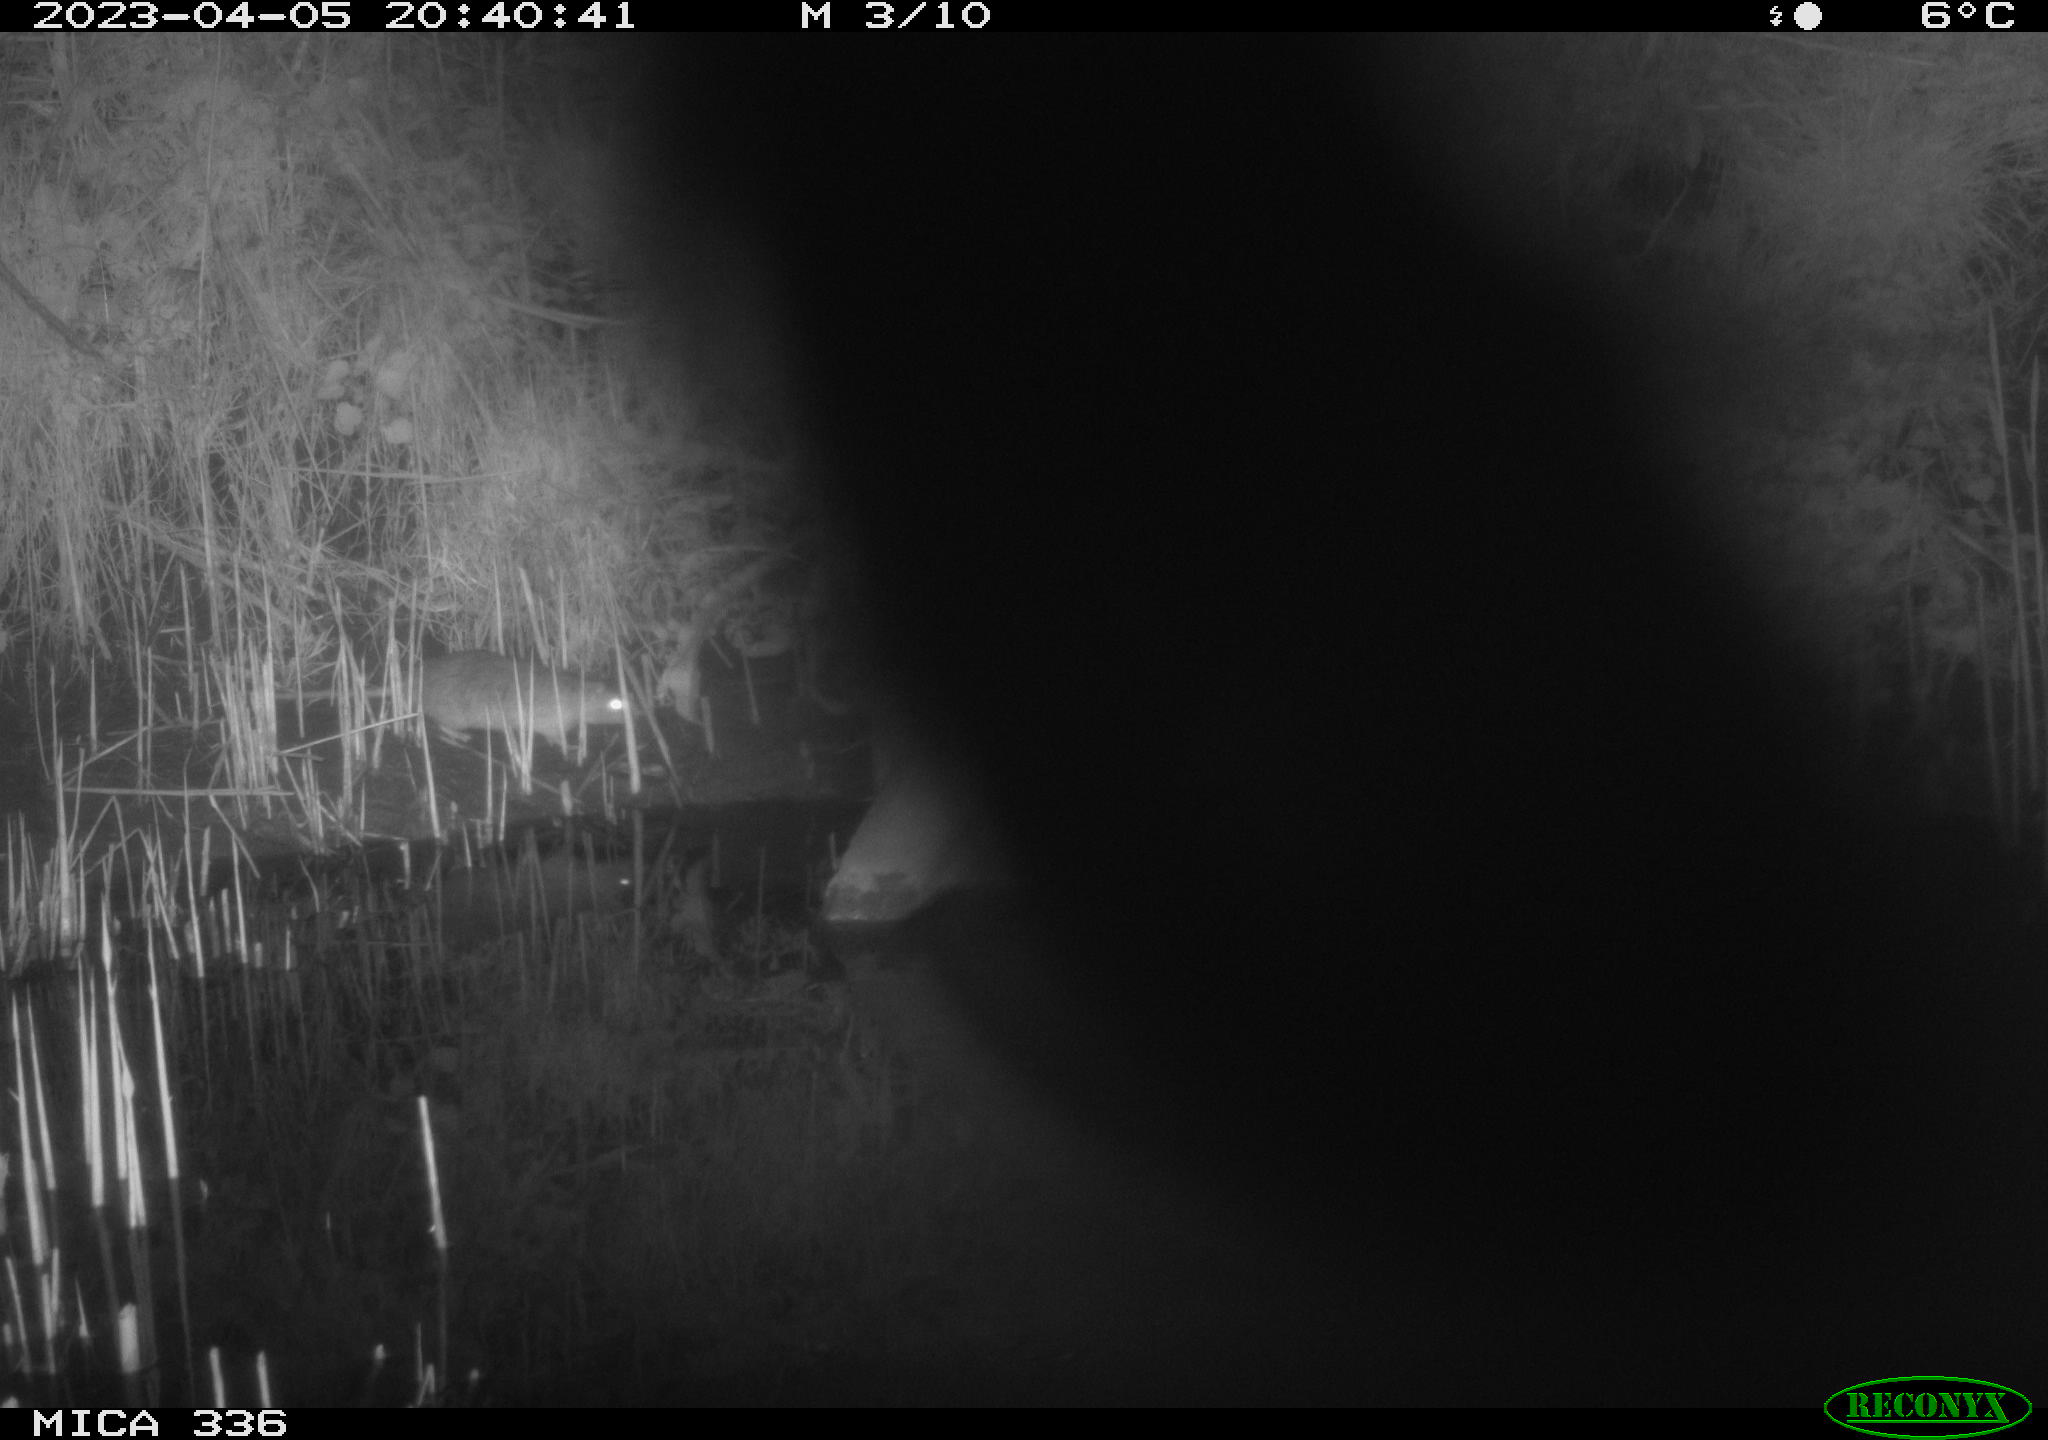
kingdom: Animalia
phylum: Chordata
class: Mammalia
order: Rodentia
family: Muridae
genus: Rattus
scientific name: Rattus norvegicus
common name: Brown rat
